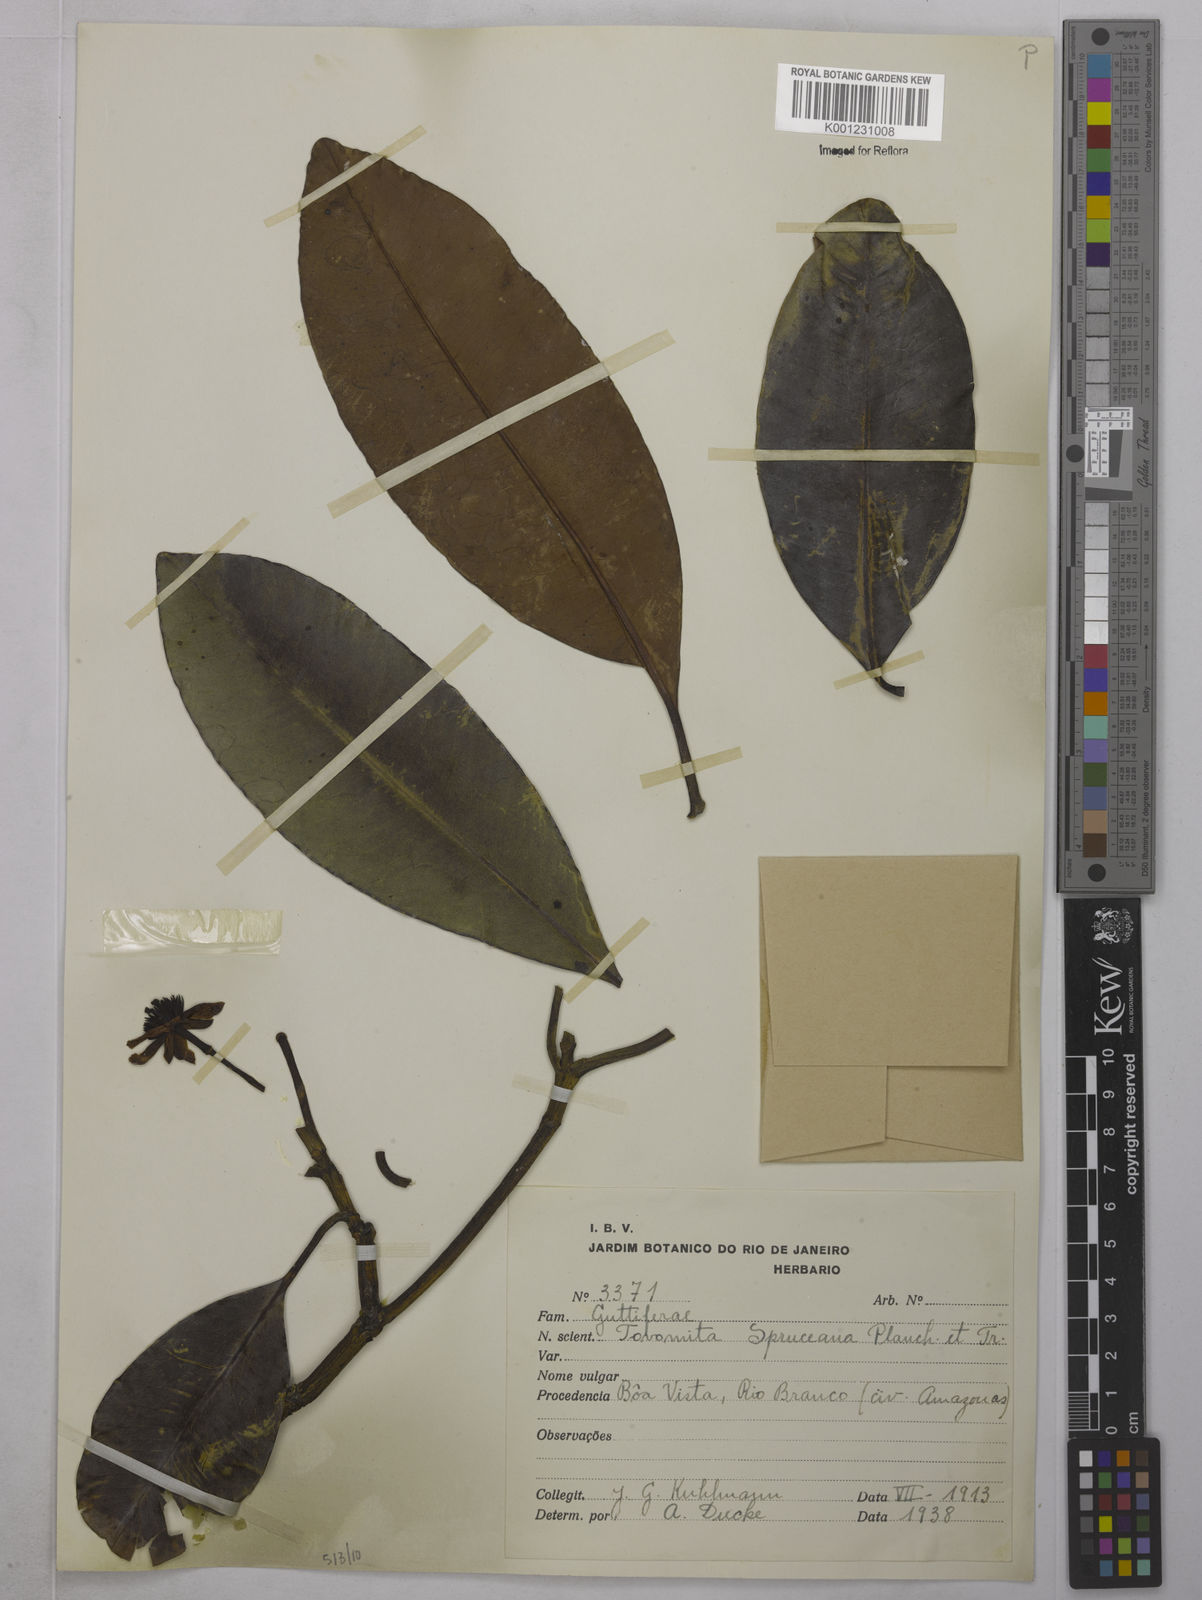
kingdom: Plantae
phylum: Tracheophyta
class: Magnoliopsida
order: Malpighiales
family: Clusiaceae
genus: Tovomita
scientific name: Tovomita spruceana
